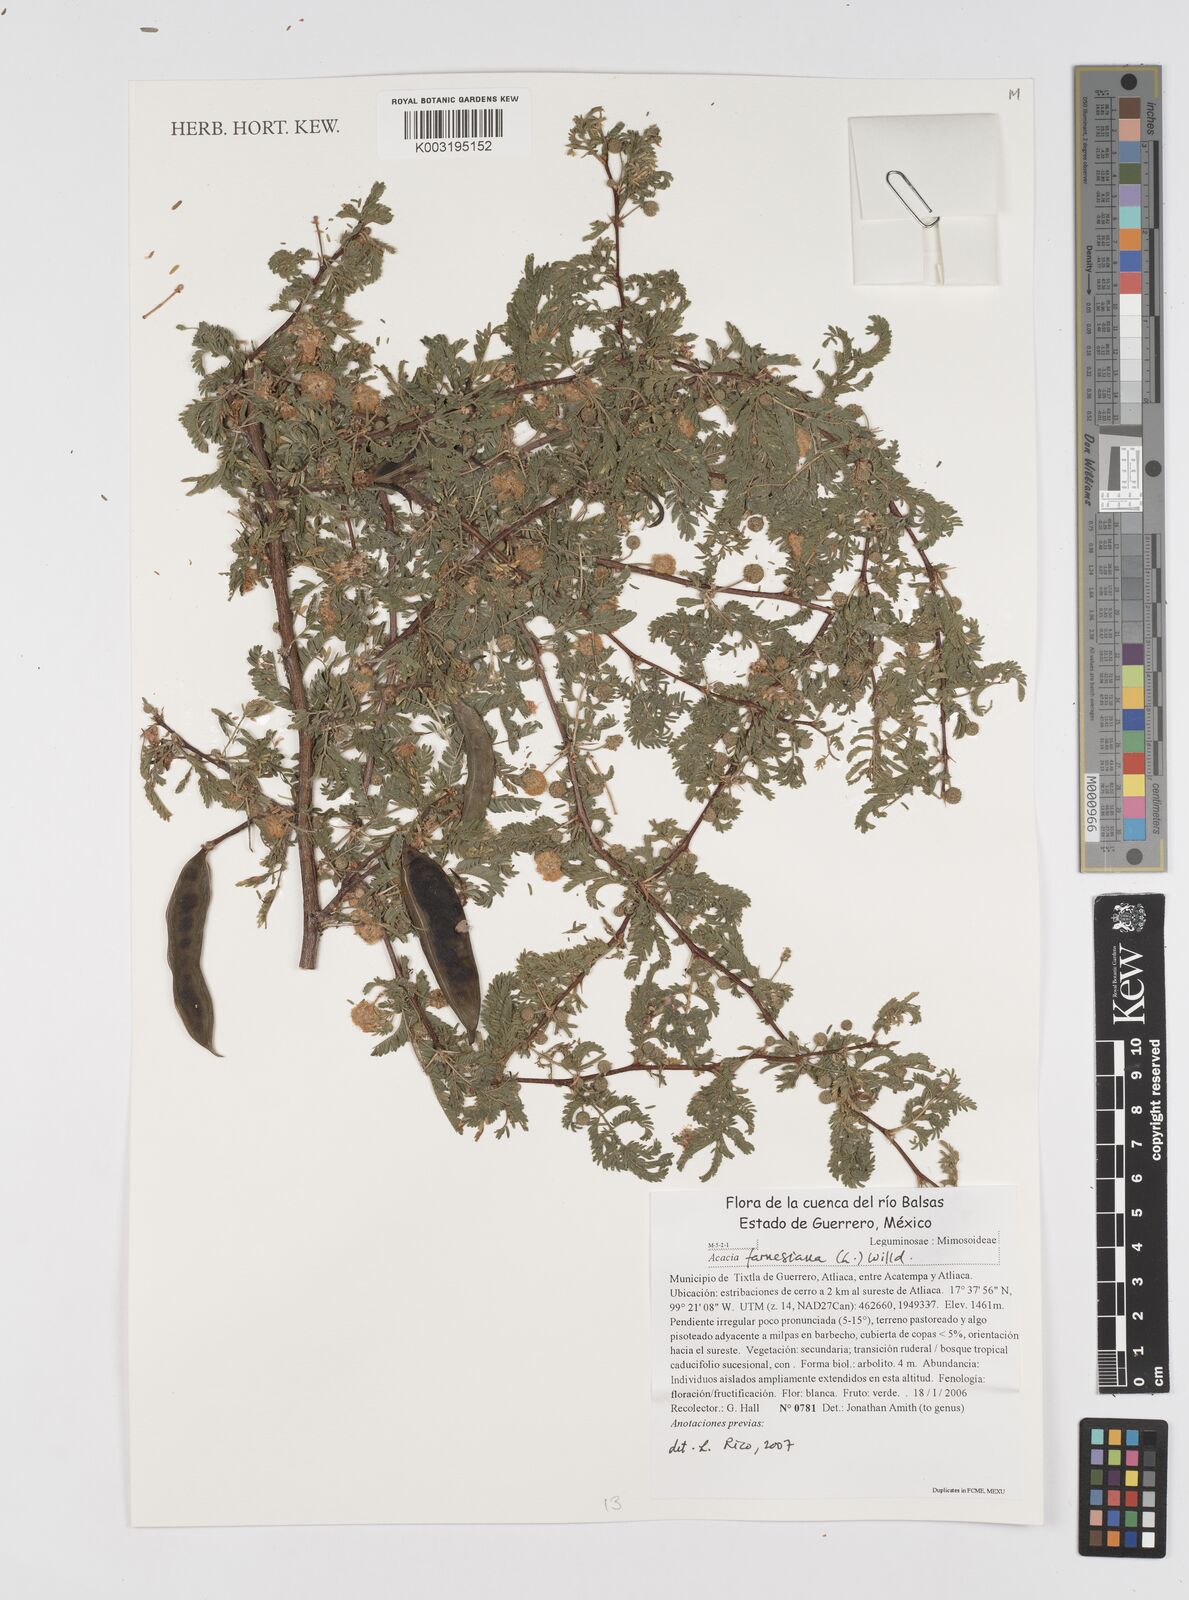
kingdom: Plantae
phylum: Tracheophyta
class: Magnoliopsida
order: Fabales
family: Fabaceae
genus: Vachellia
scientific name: Vachellia farnesiana
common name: Sweet acacia
